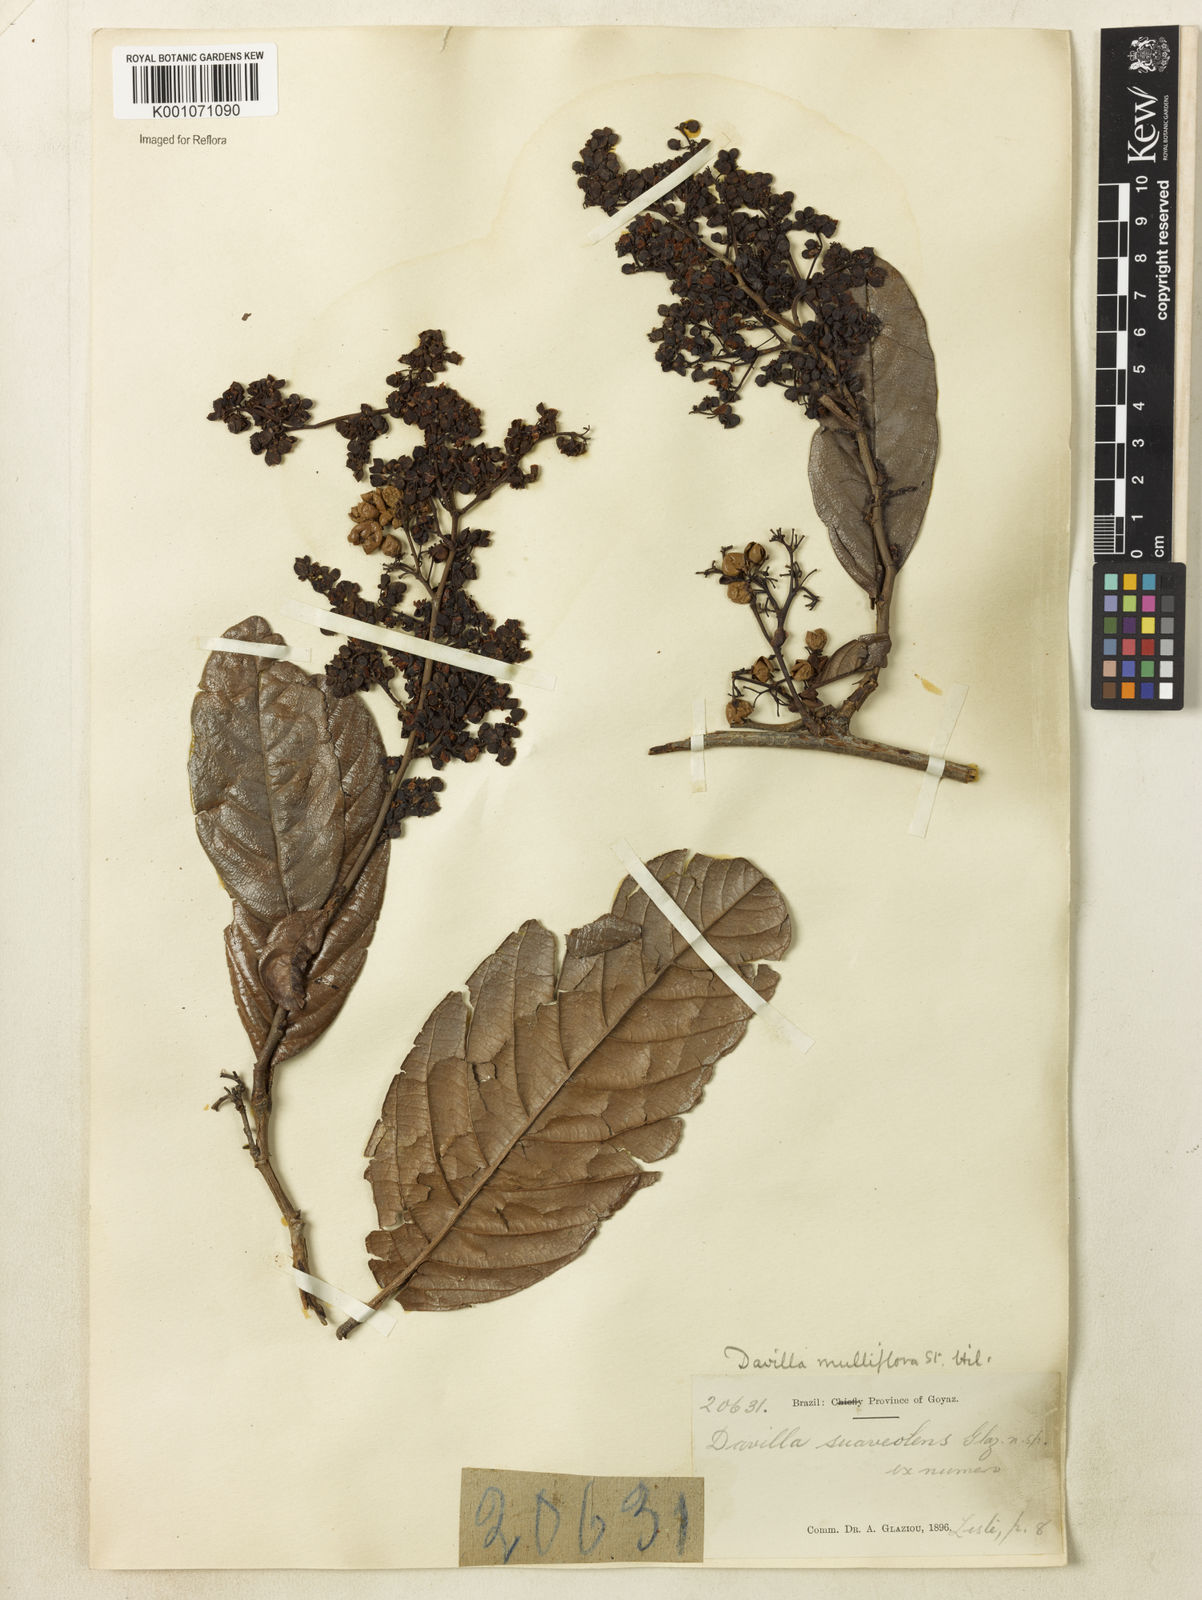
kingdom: Plantae
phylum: Tracheophyta
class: Magnoliopsida
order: Dilleniales
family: Dilleniaceae
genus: Davilla
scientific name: Davilla nitida
